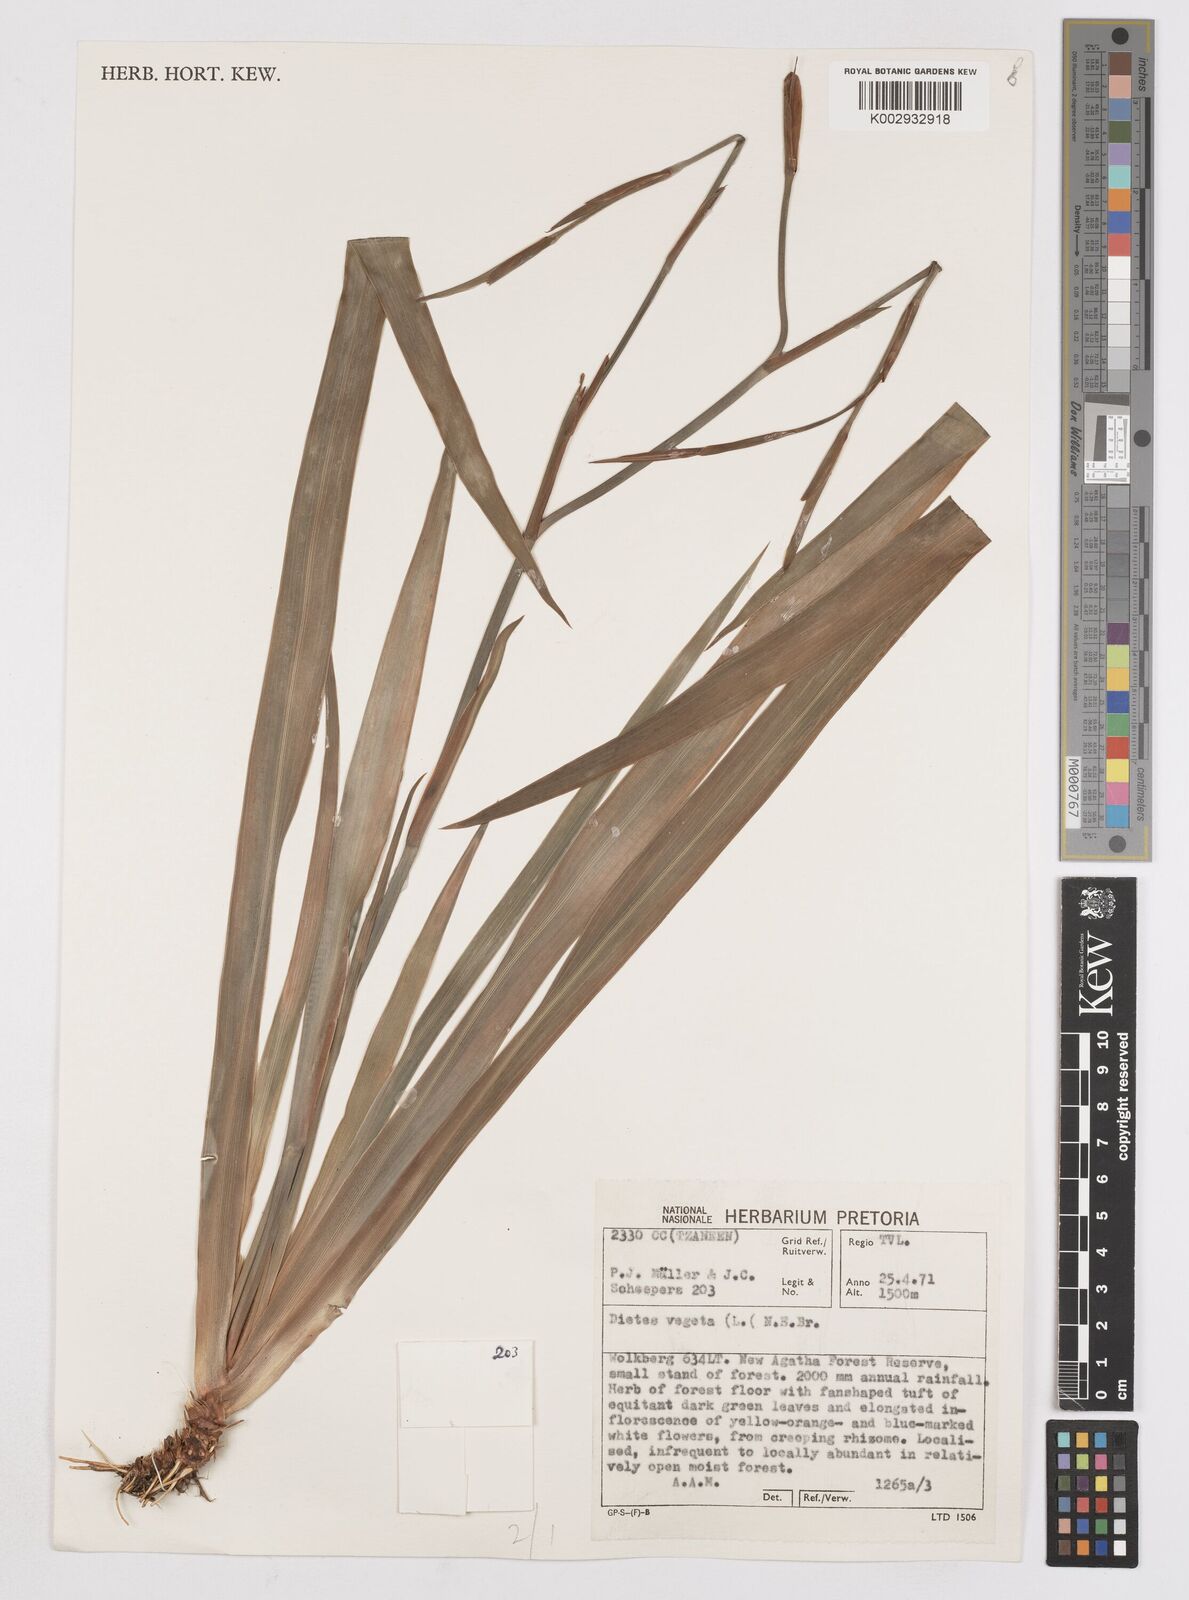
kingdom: Plantae
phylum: Tracheophyta
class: Liliopsida
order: Asparagales
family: Iridaceae
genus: Dietes
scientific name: Dietes iridioides
